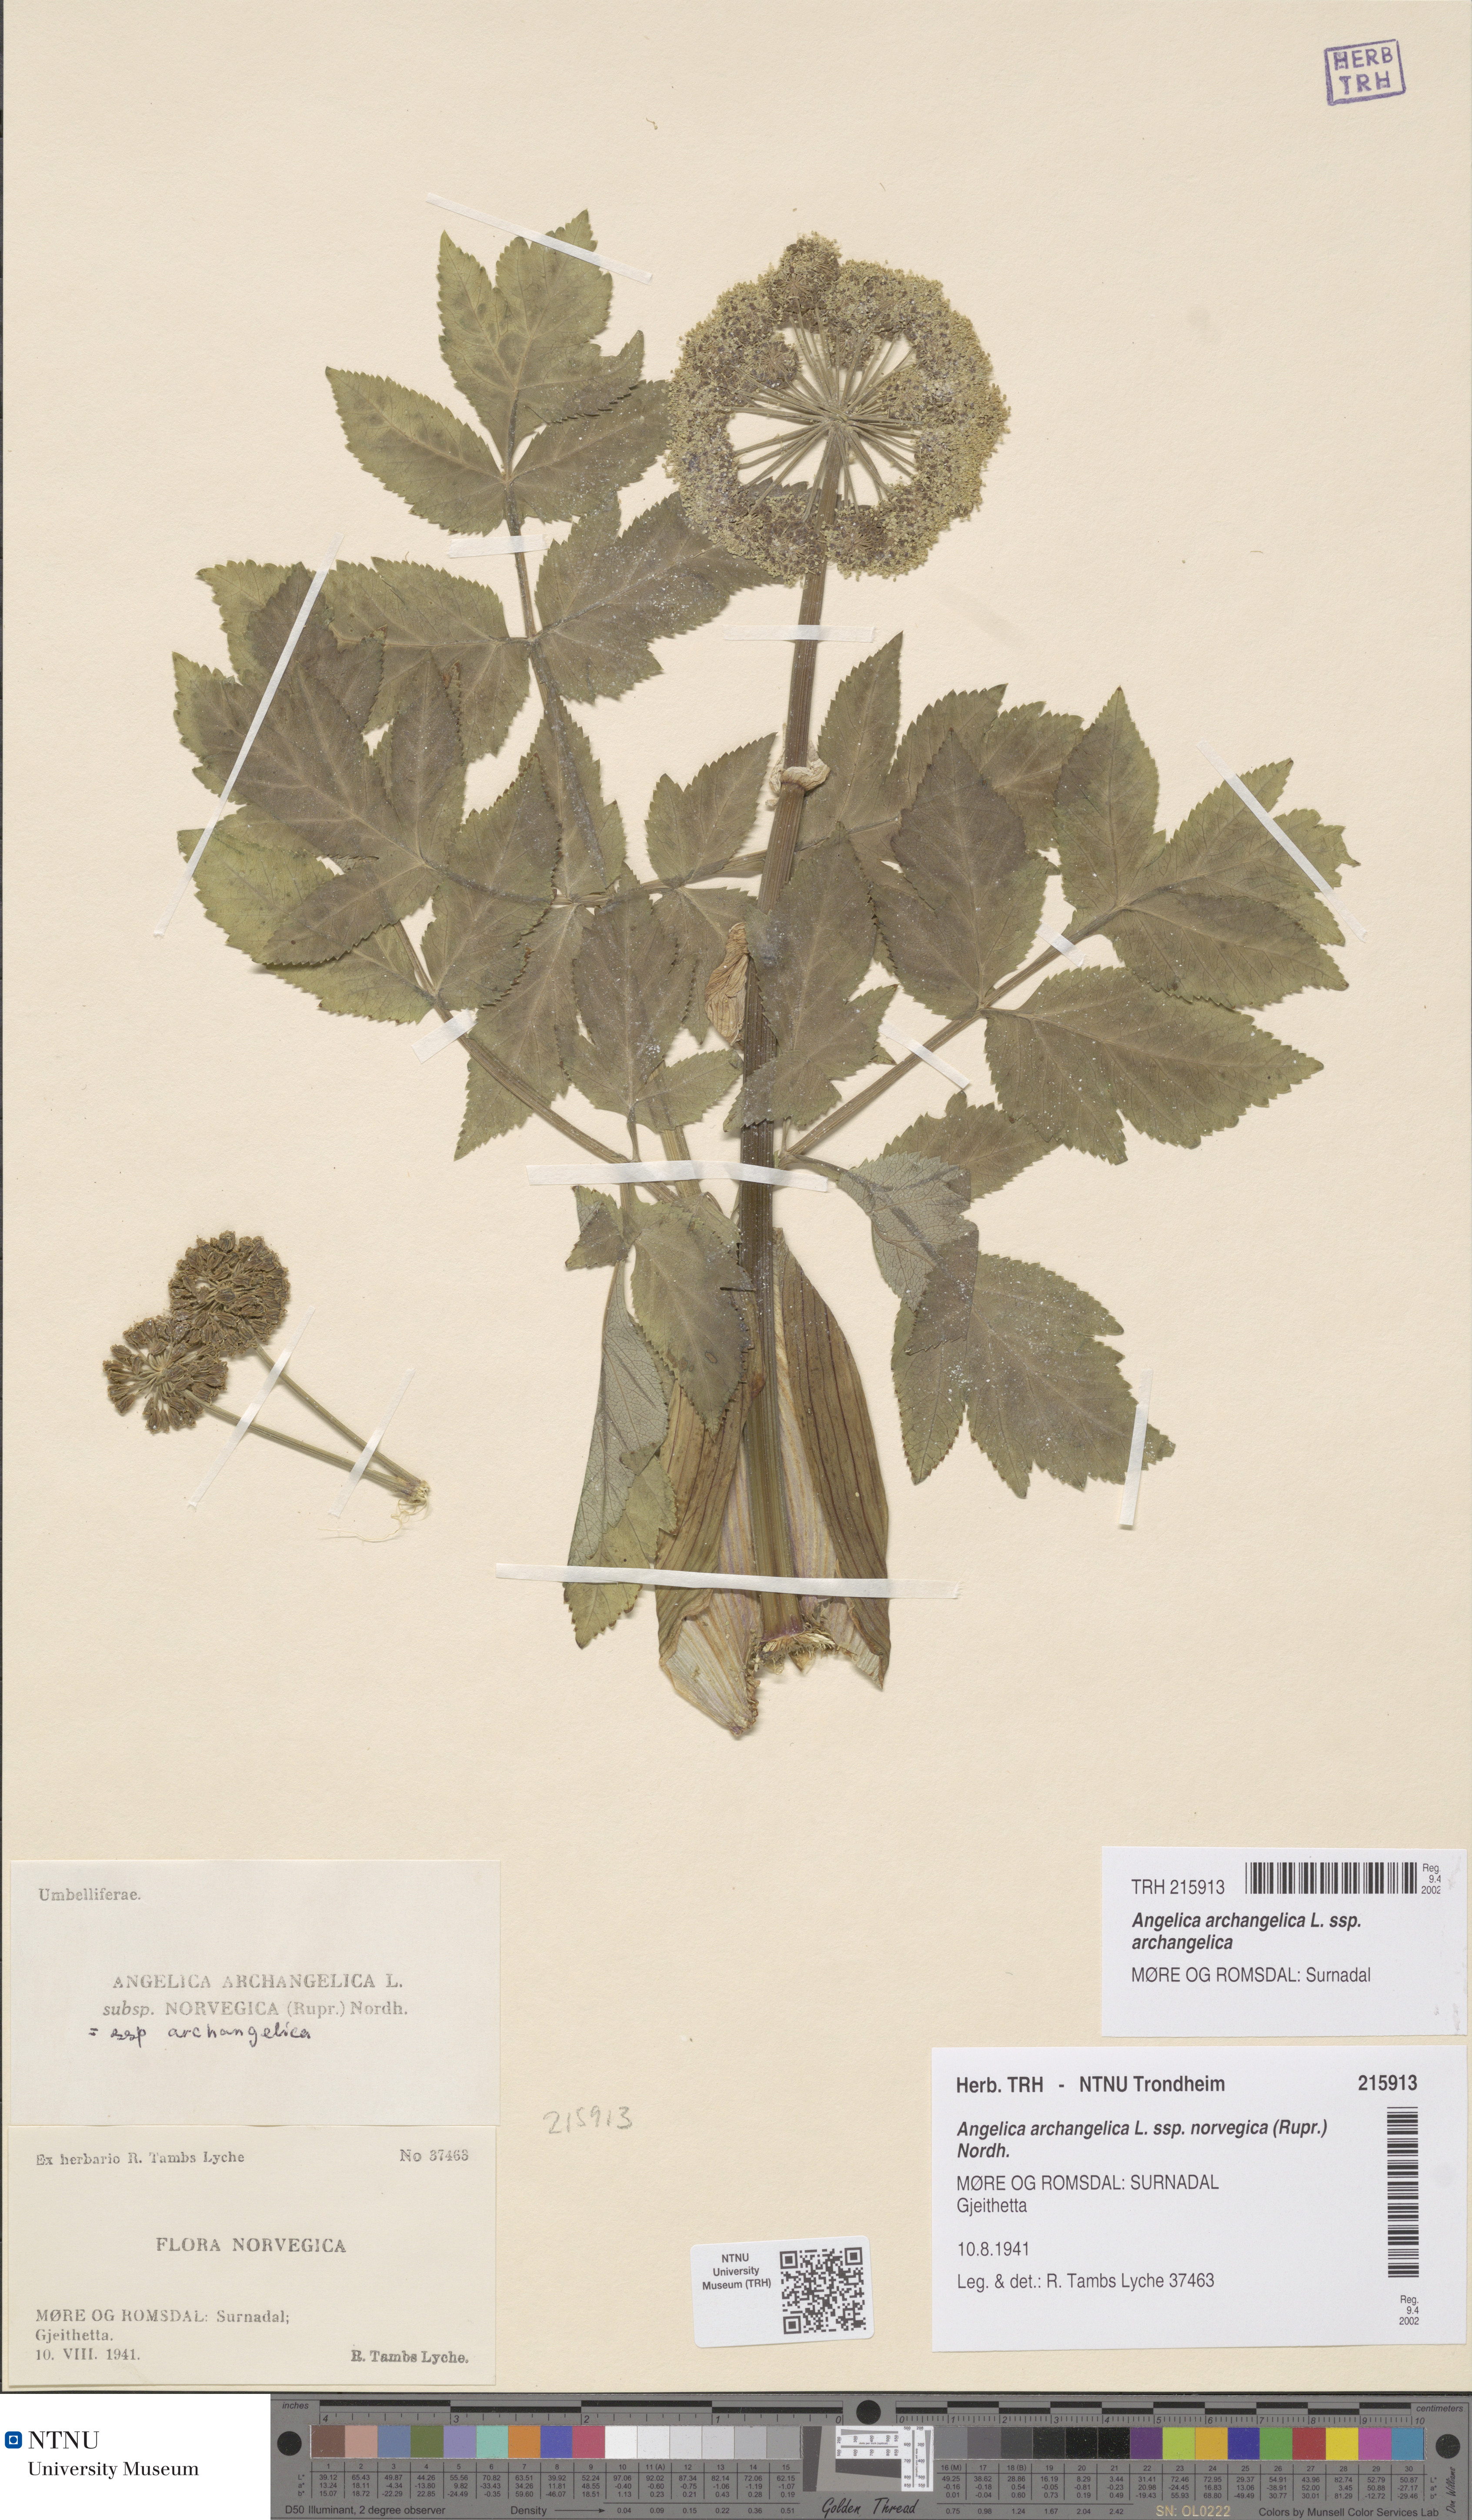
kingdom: Plantae
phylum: Tracheophyta
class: Magnoliopsida
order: Apiales
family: Apiaceae
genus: Angelica
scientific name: Angelica archangelica
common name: Garden angelica
